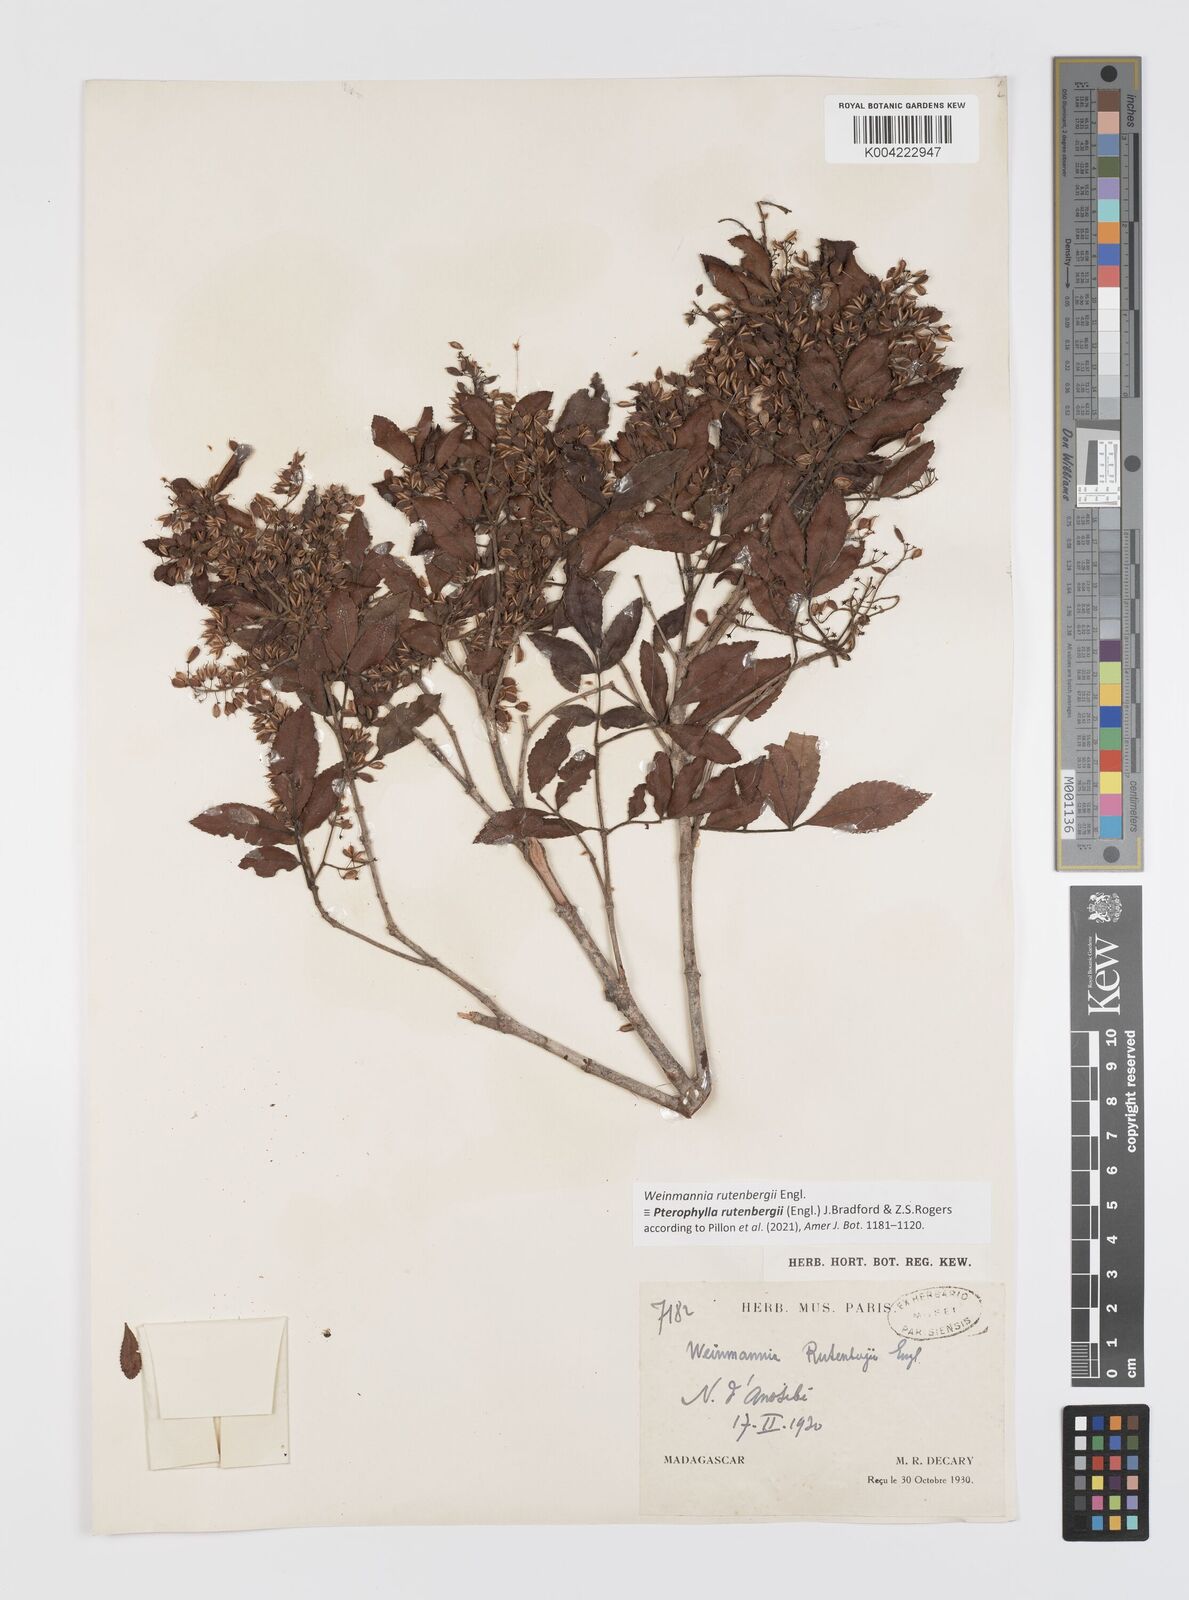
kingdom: Plantae
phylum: Tracheophyta
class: Magnoliopsida
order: Oxalidales
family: Cunoniaceae
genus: Pterophylla
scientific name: Pterophylla rutenbergii
